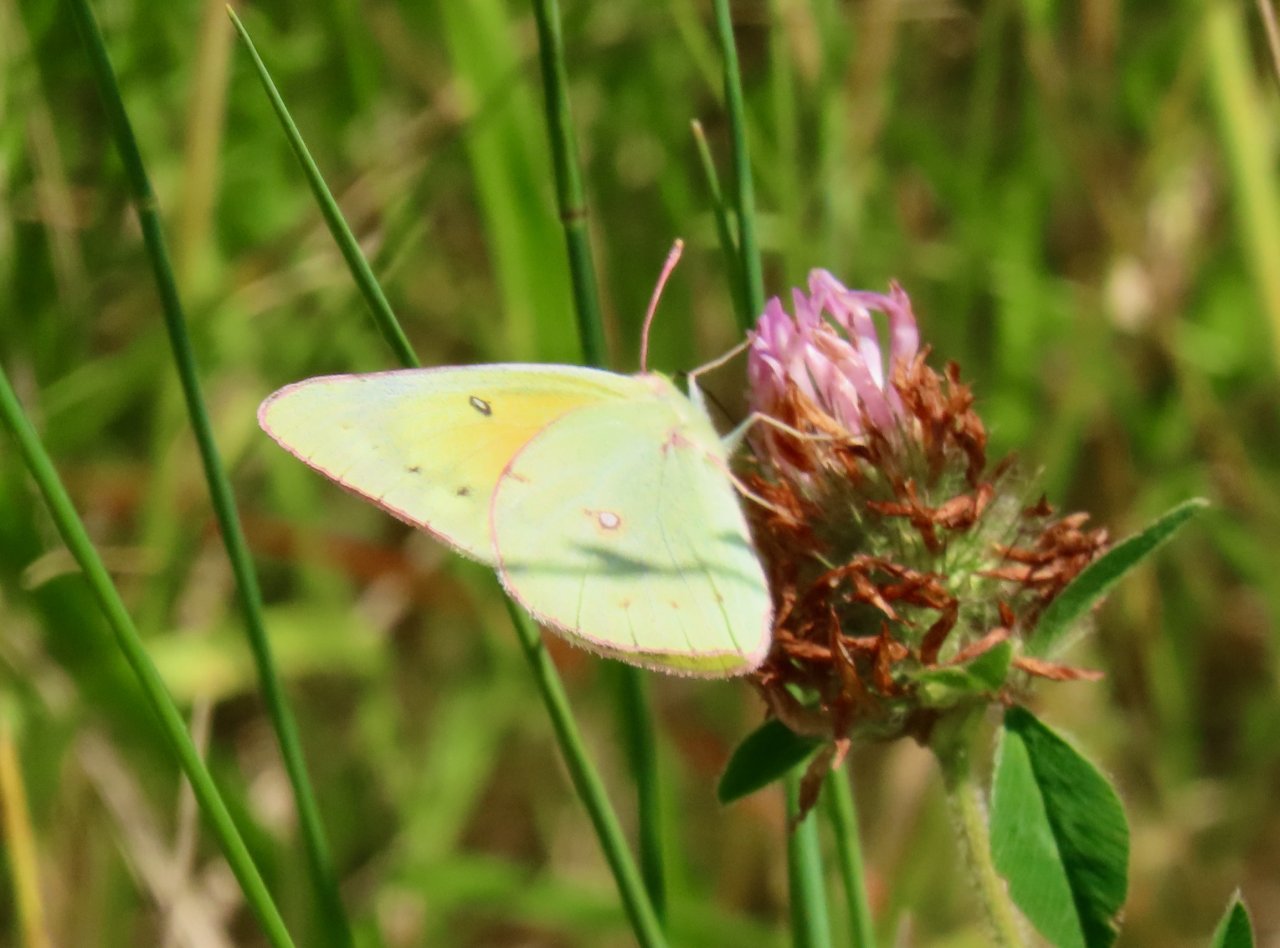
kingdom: Animalia
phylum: Arthropoda
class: Insecta
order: Lepidoptera
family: Pieridae
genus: Colias
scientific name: Colias philodice
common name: Clouded Sulphur
